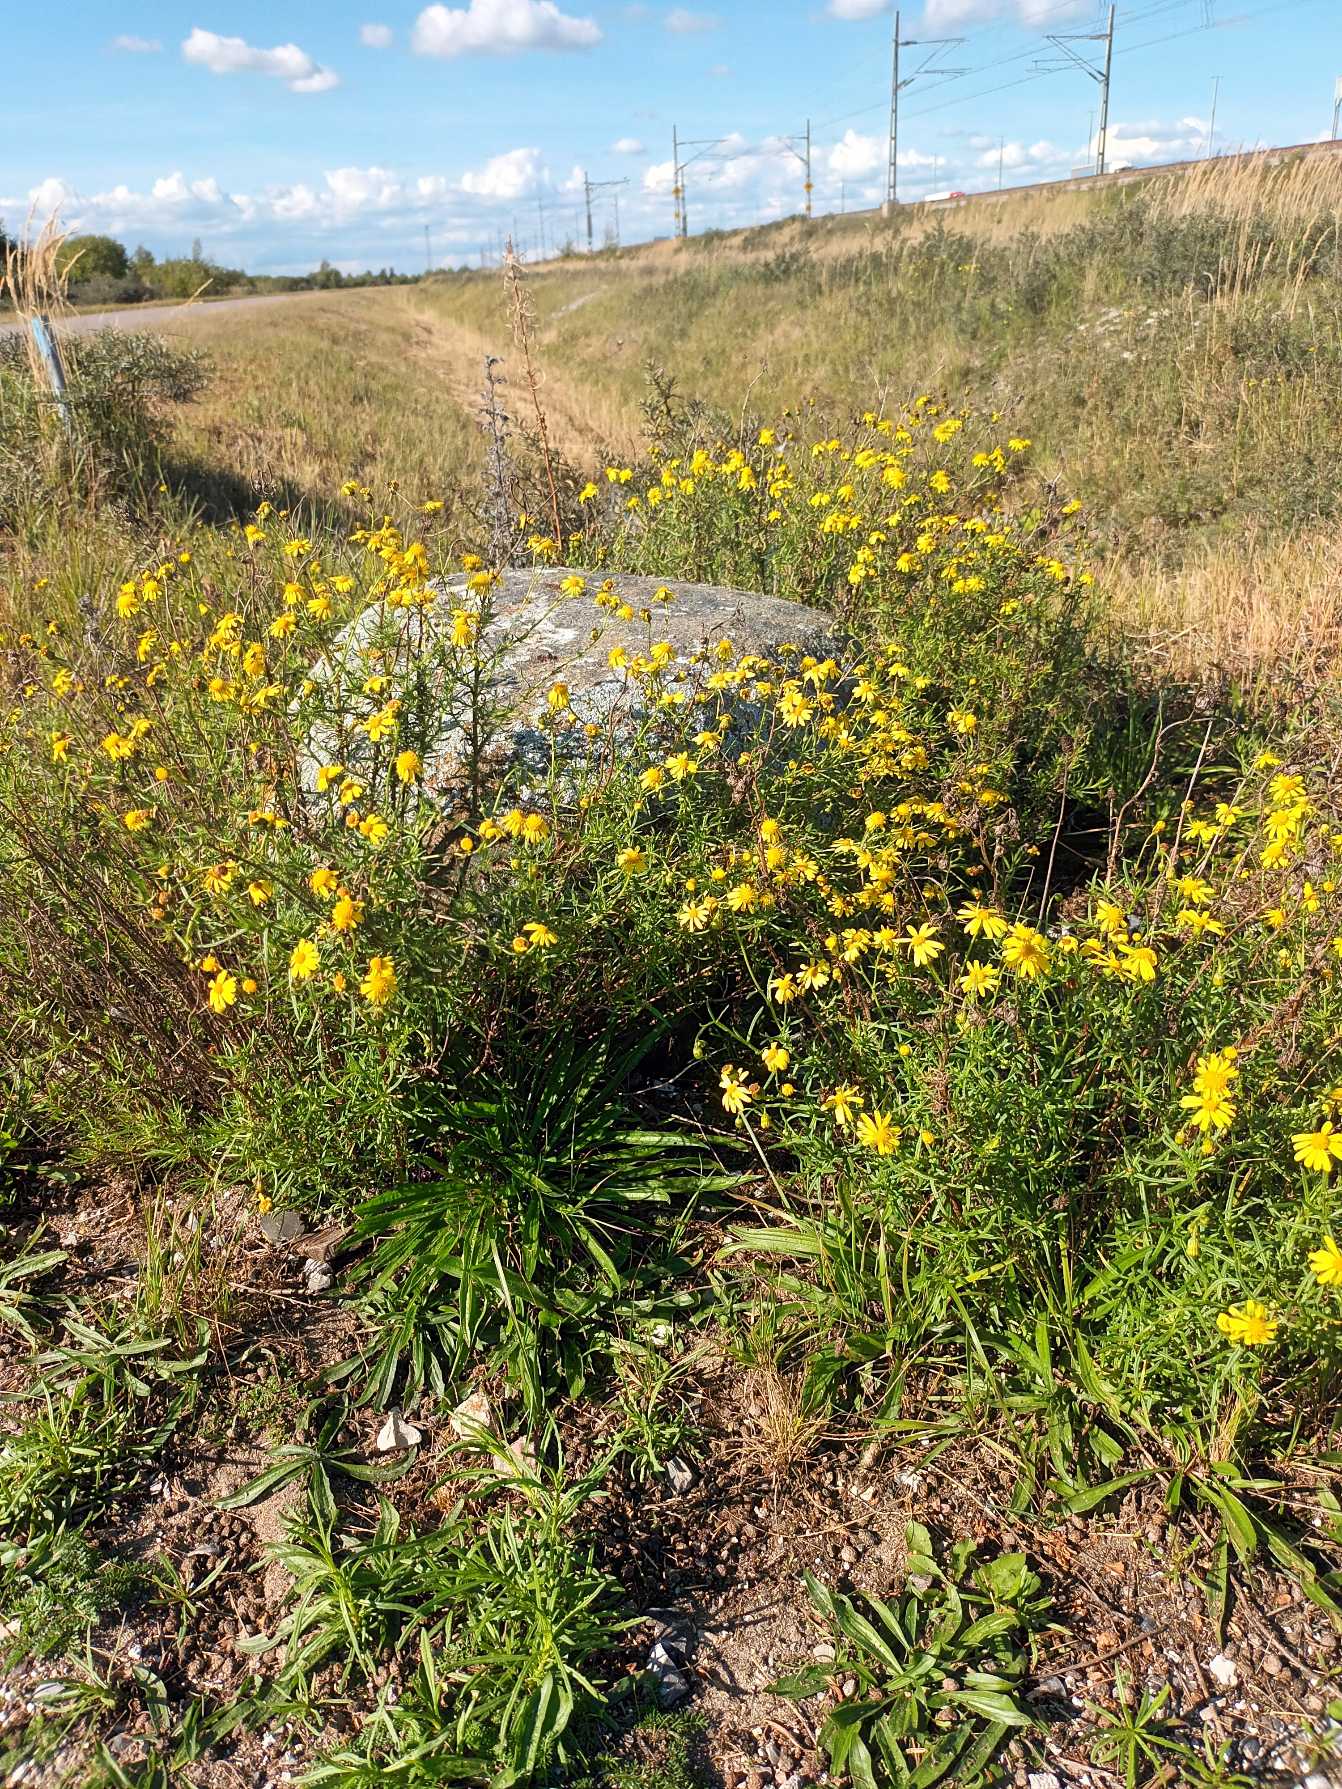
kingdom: Plantae
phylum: Tracheophyta
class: Magnoliopsida
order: Asterales
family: Asteraceae
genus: Senecio
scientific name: Senecio inaequidens
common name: Smalbladet brandbæger
